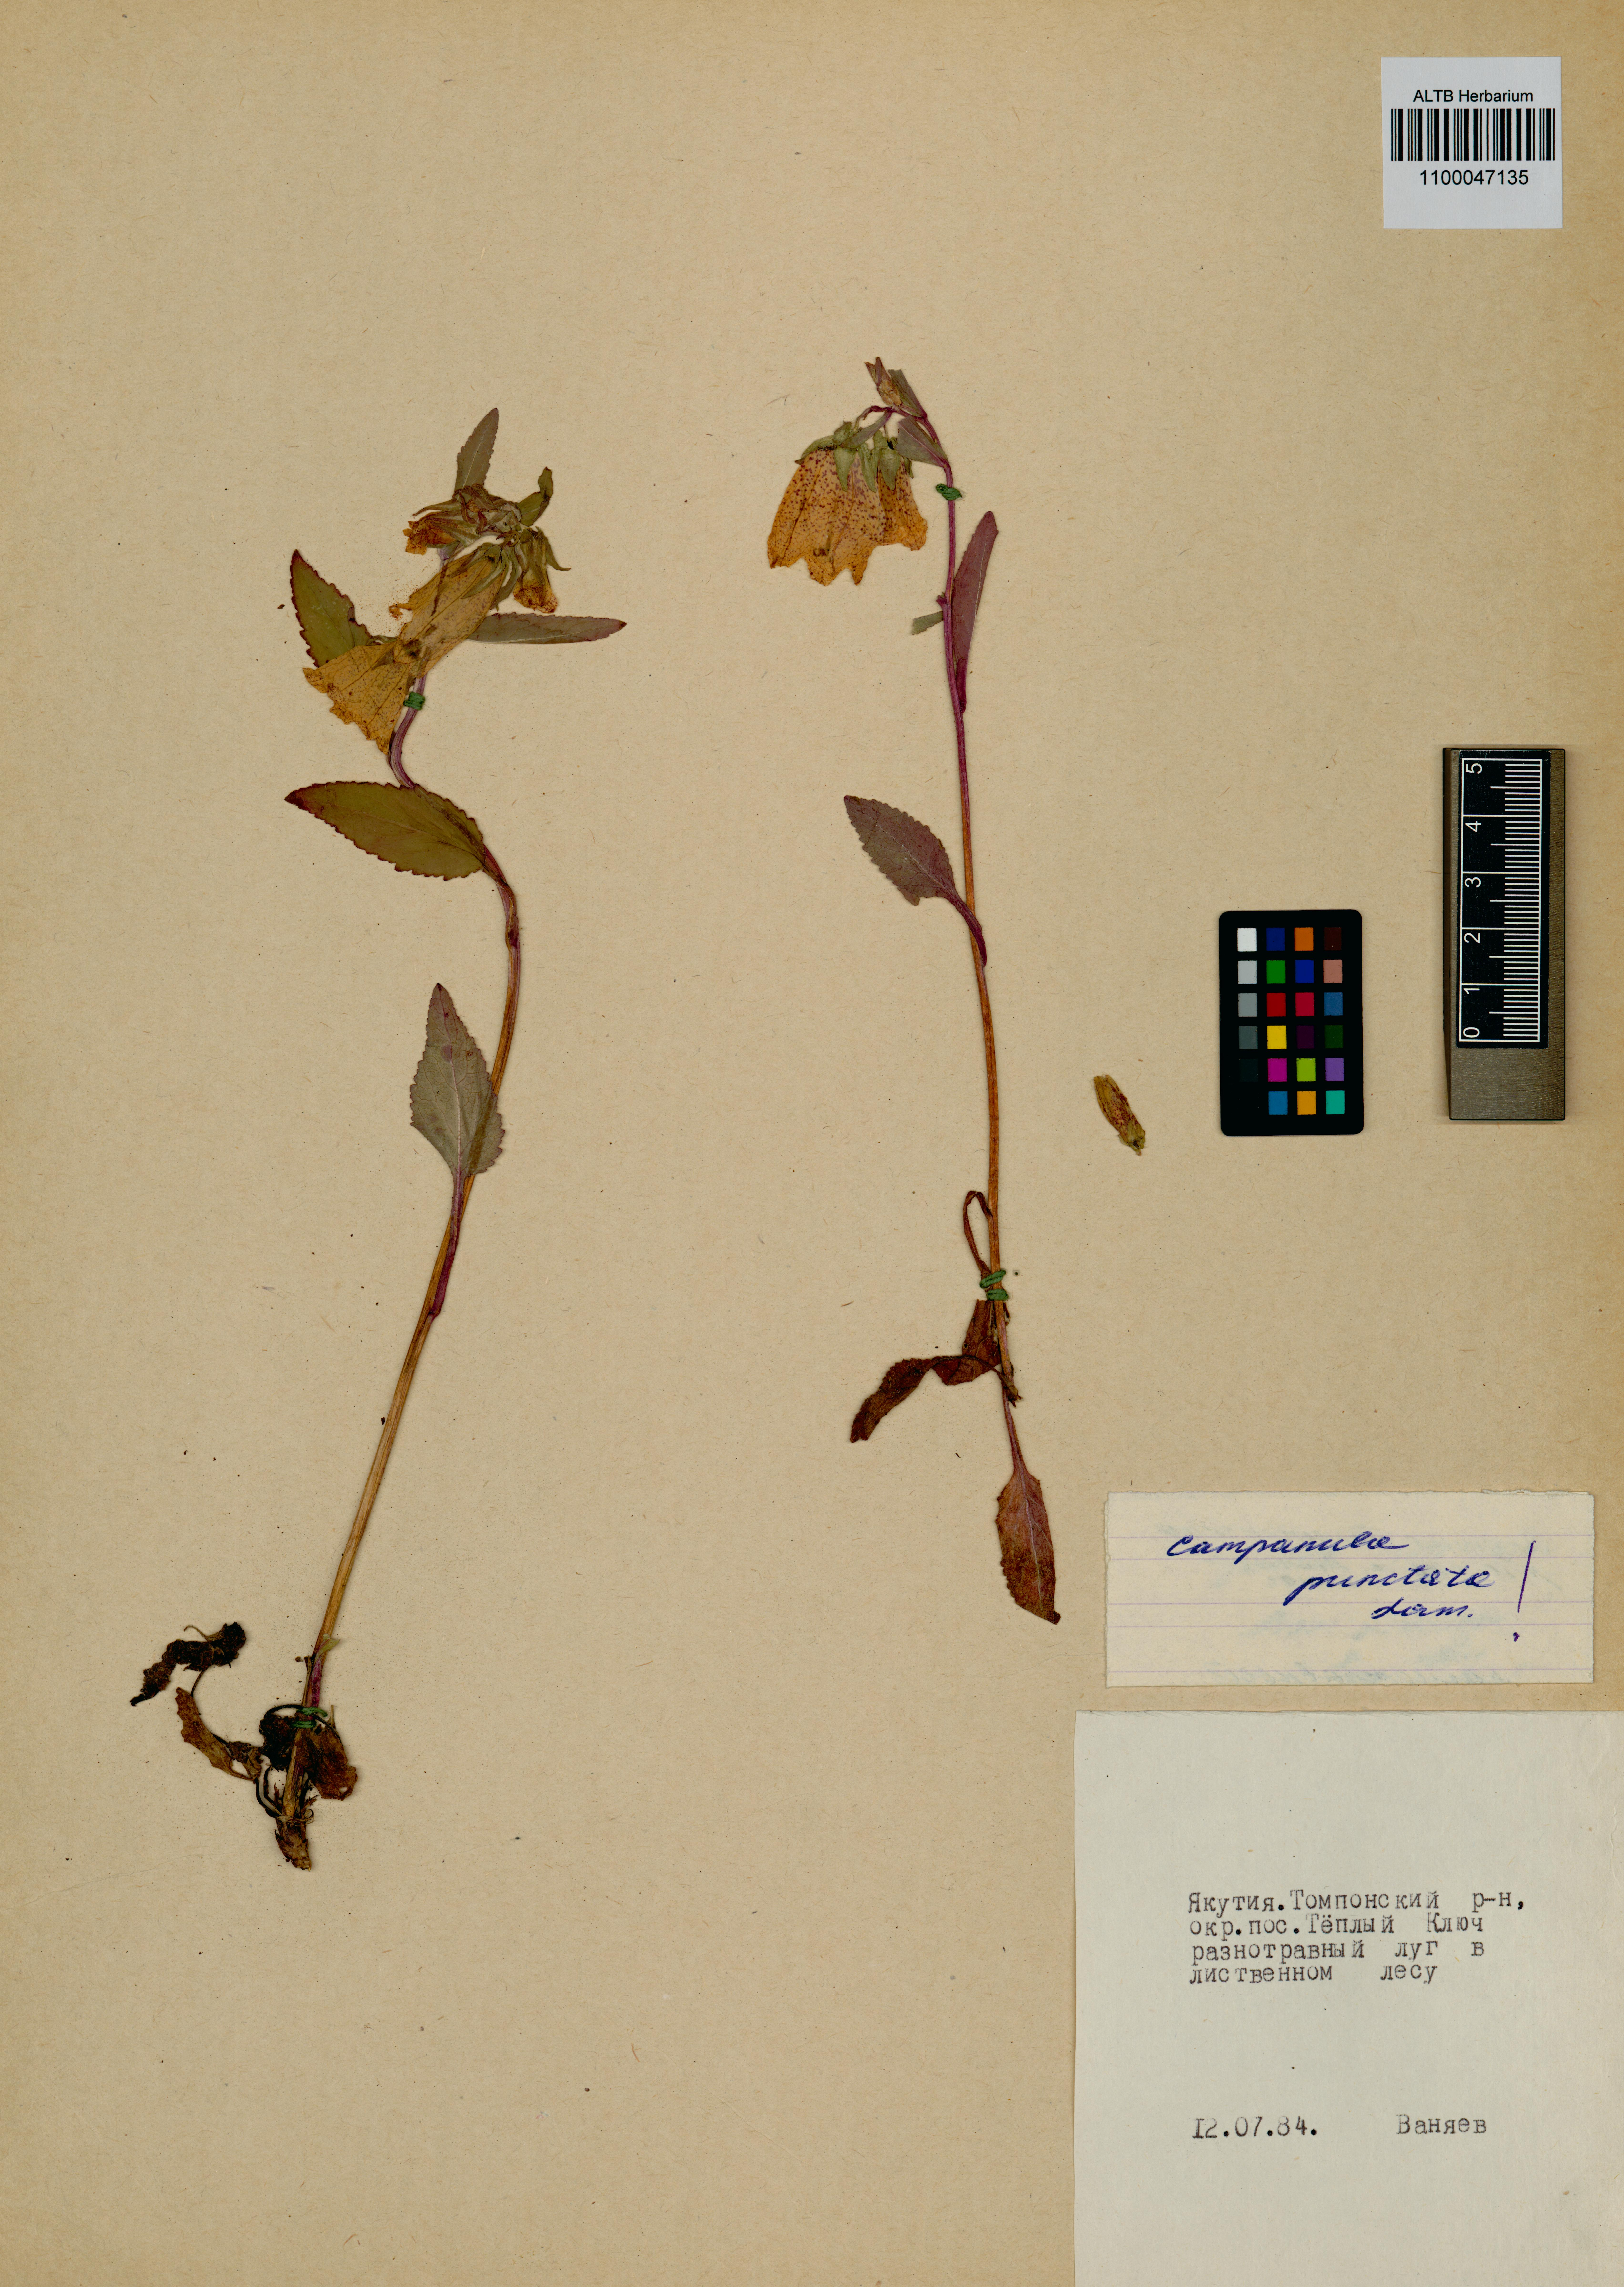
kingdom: Plantae
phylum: Tracheophyta
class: Magnoliopsida
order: Asterales
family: Campanulaceae
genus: Campanula
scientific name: Campanula punctata
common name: Spotted bellflower
